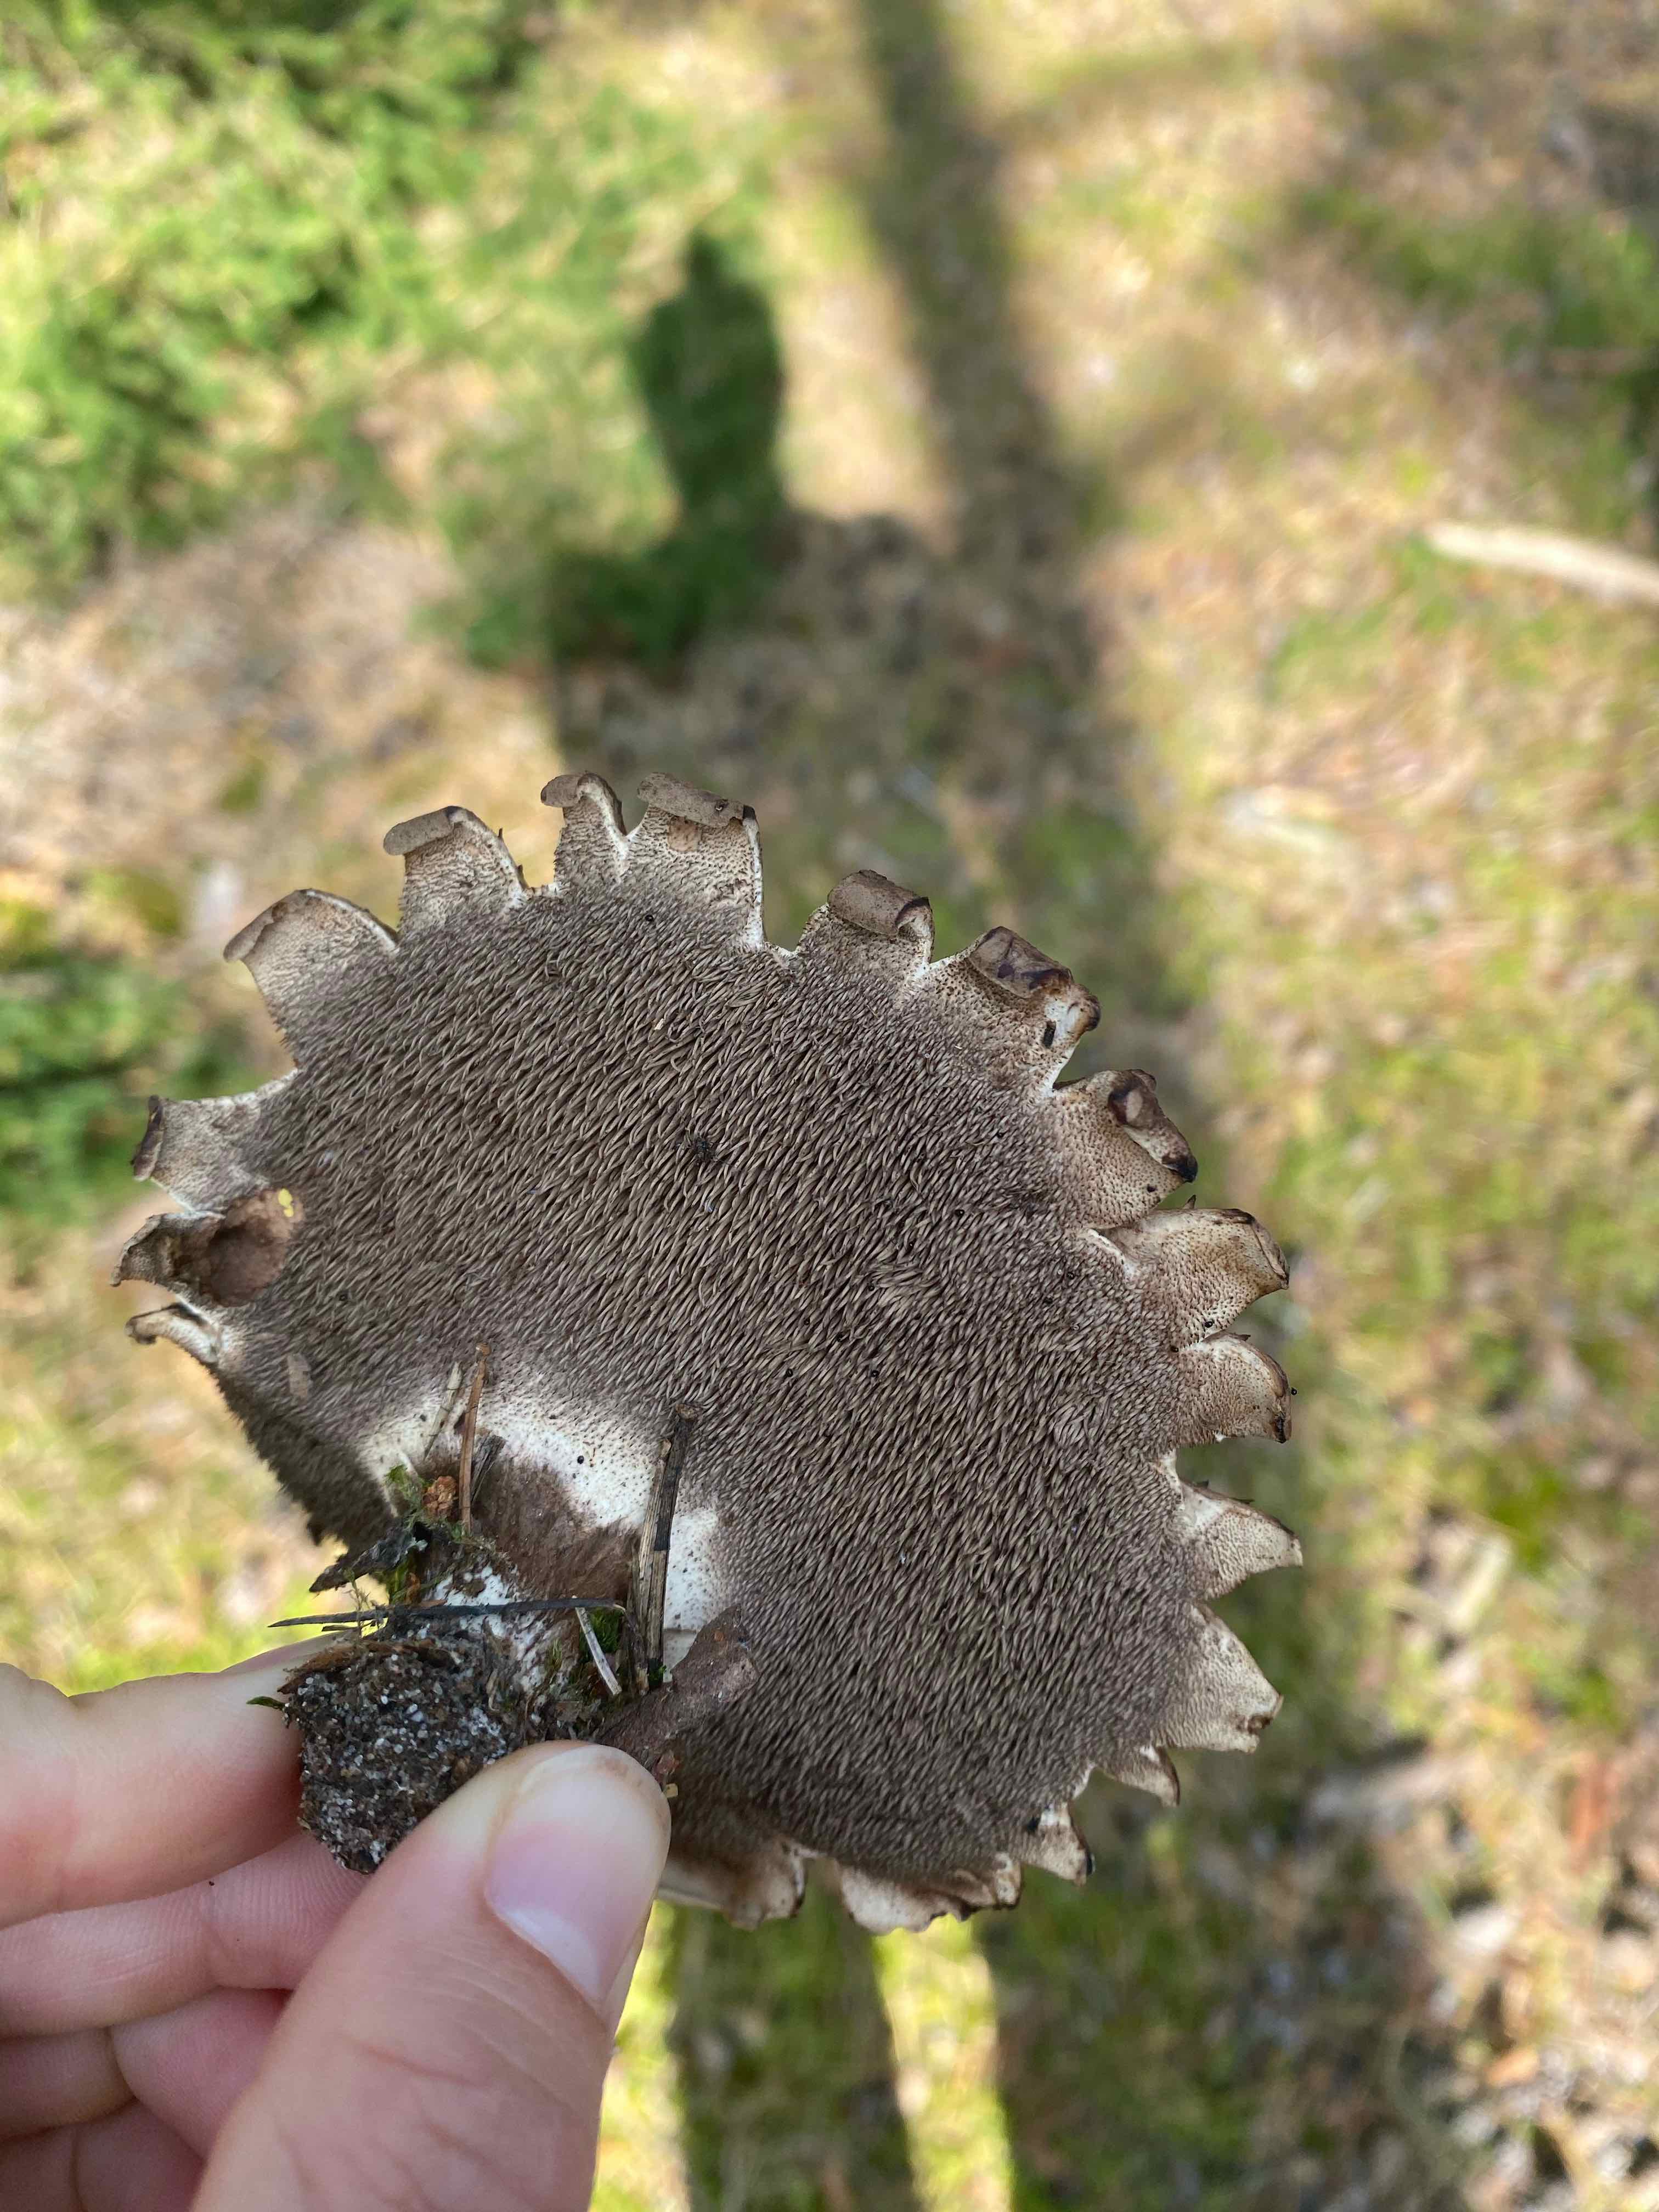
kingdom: Fungi
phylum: Basidiomycota
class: Agaricomycetes
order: Thelephorales
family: Bankeraceae
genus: Sarcodon
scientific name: Sarcodon imbricatus
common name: Shingled hedgehog
